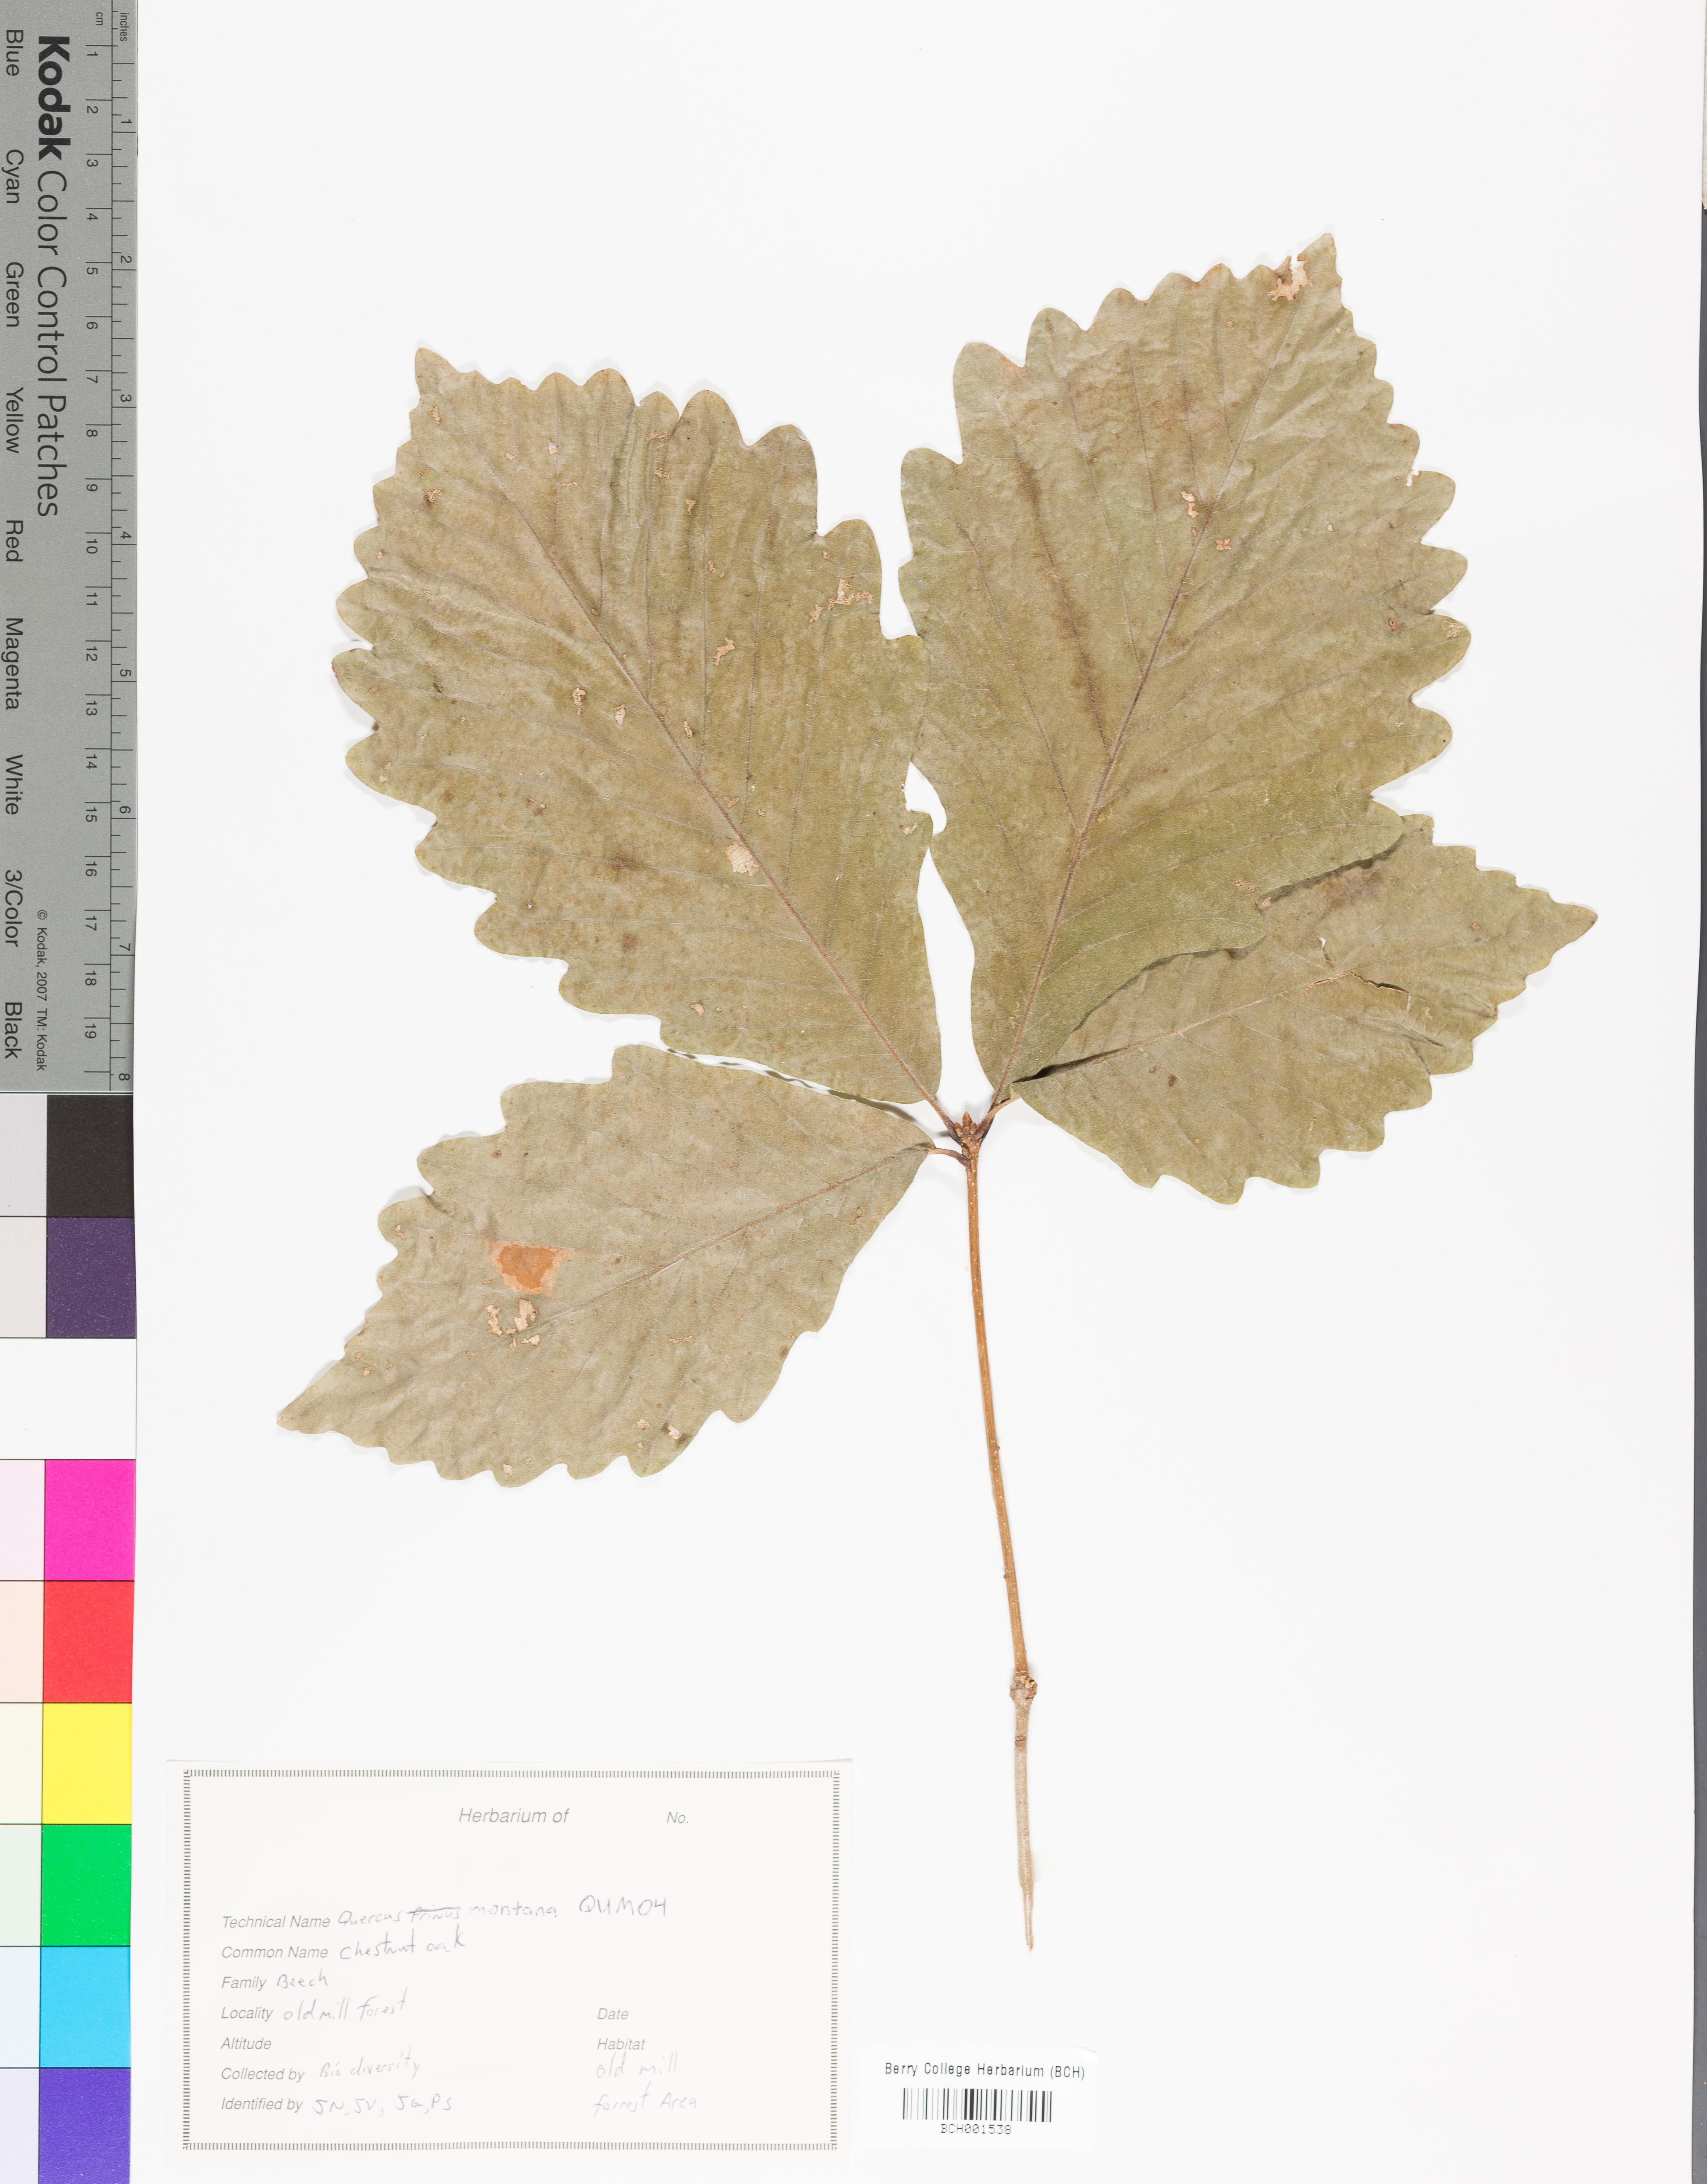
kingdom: Plantae
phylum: Tracheophyta
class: Magnoliopsida
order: Fagales
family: Fagaceae
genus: Quercus
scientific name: Quercus montana
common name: Chestnut oak
